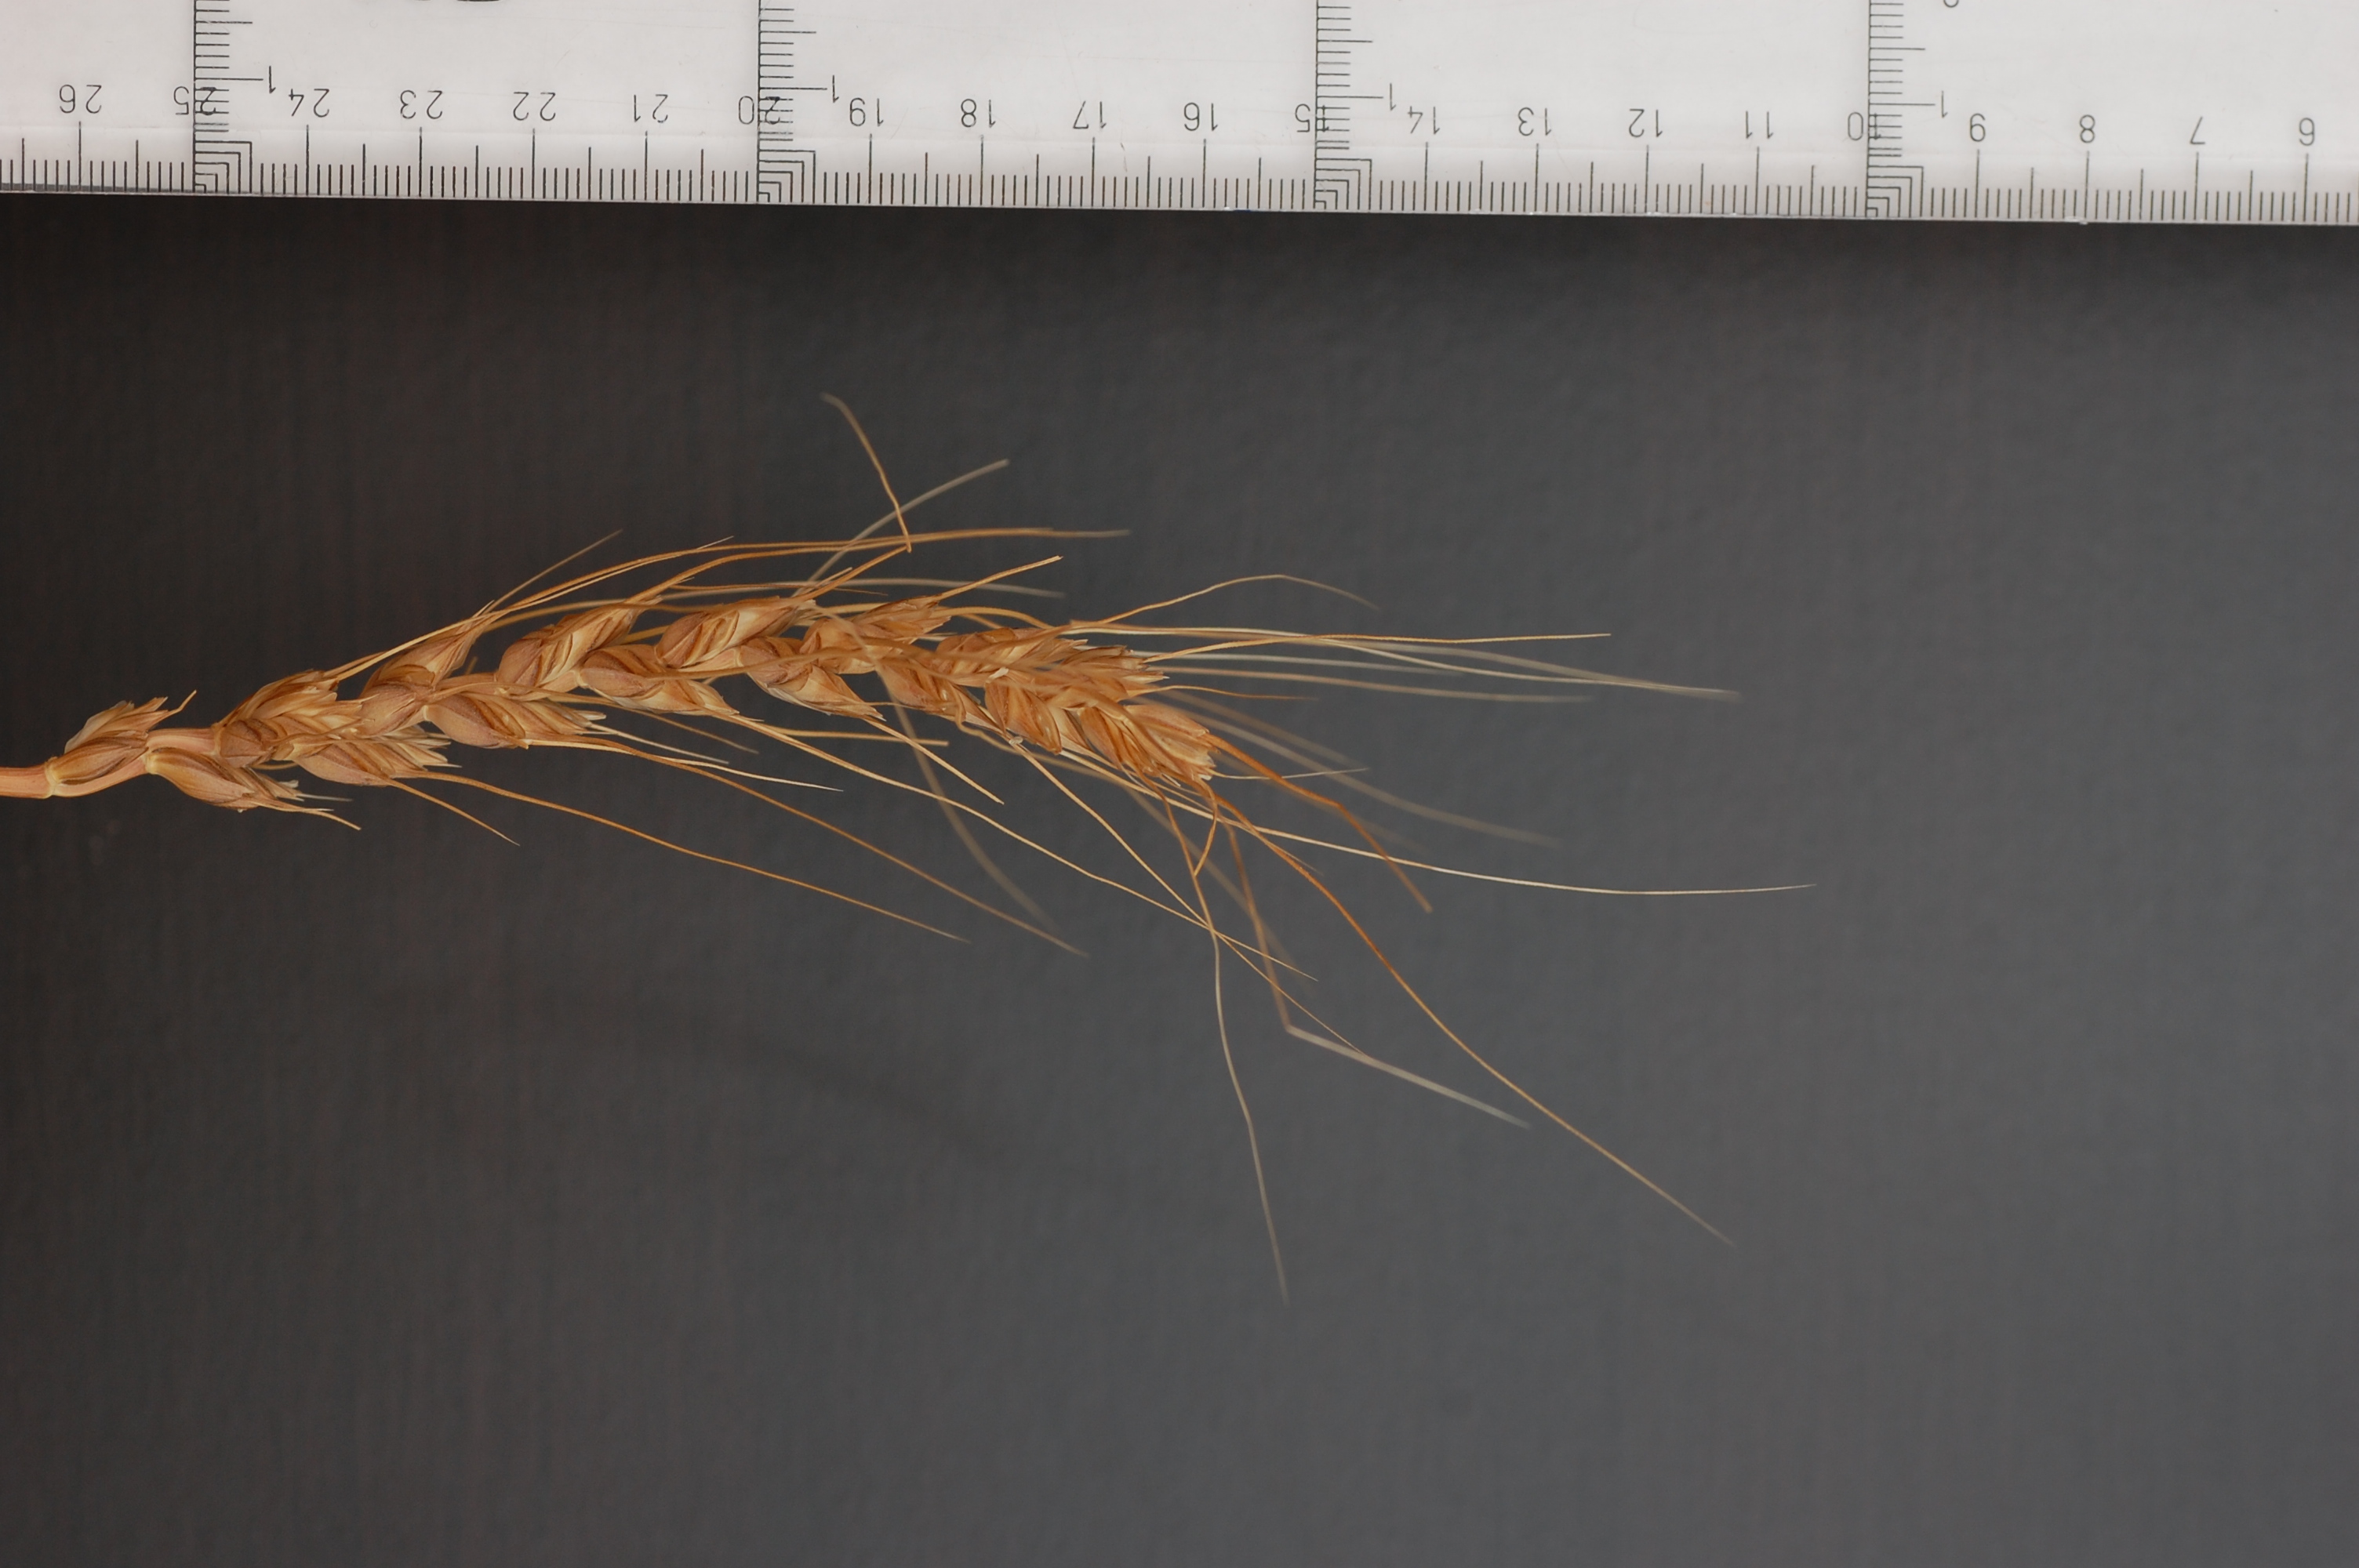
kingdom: Plantae
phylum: Tracheophyta
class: Liliopsida
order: Poales
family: Poaceae
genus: Triticum
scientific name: Triticum aestivum
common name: Common wheat
